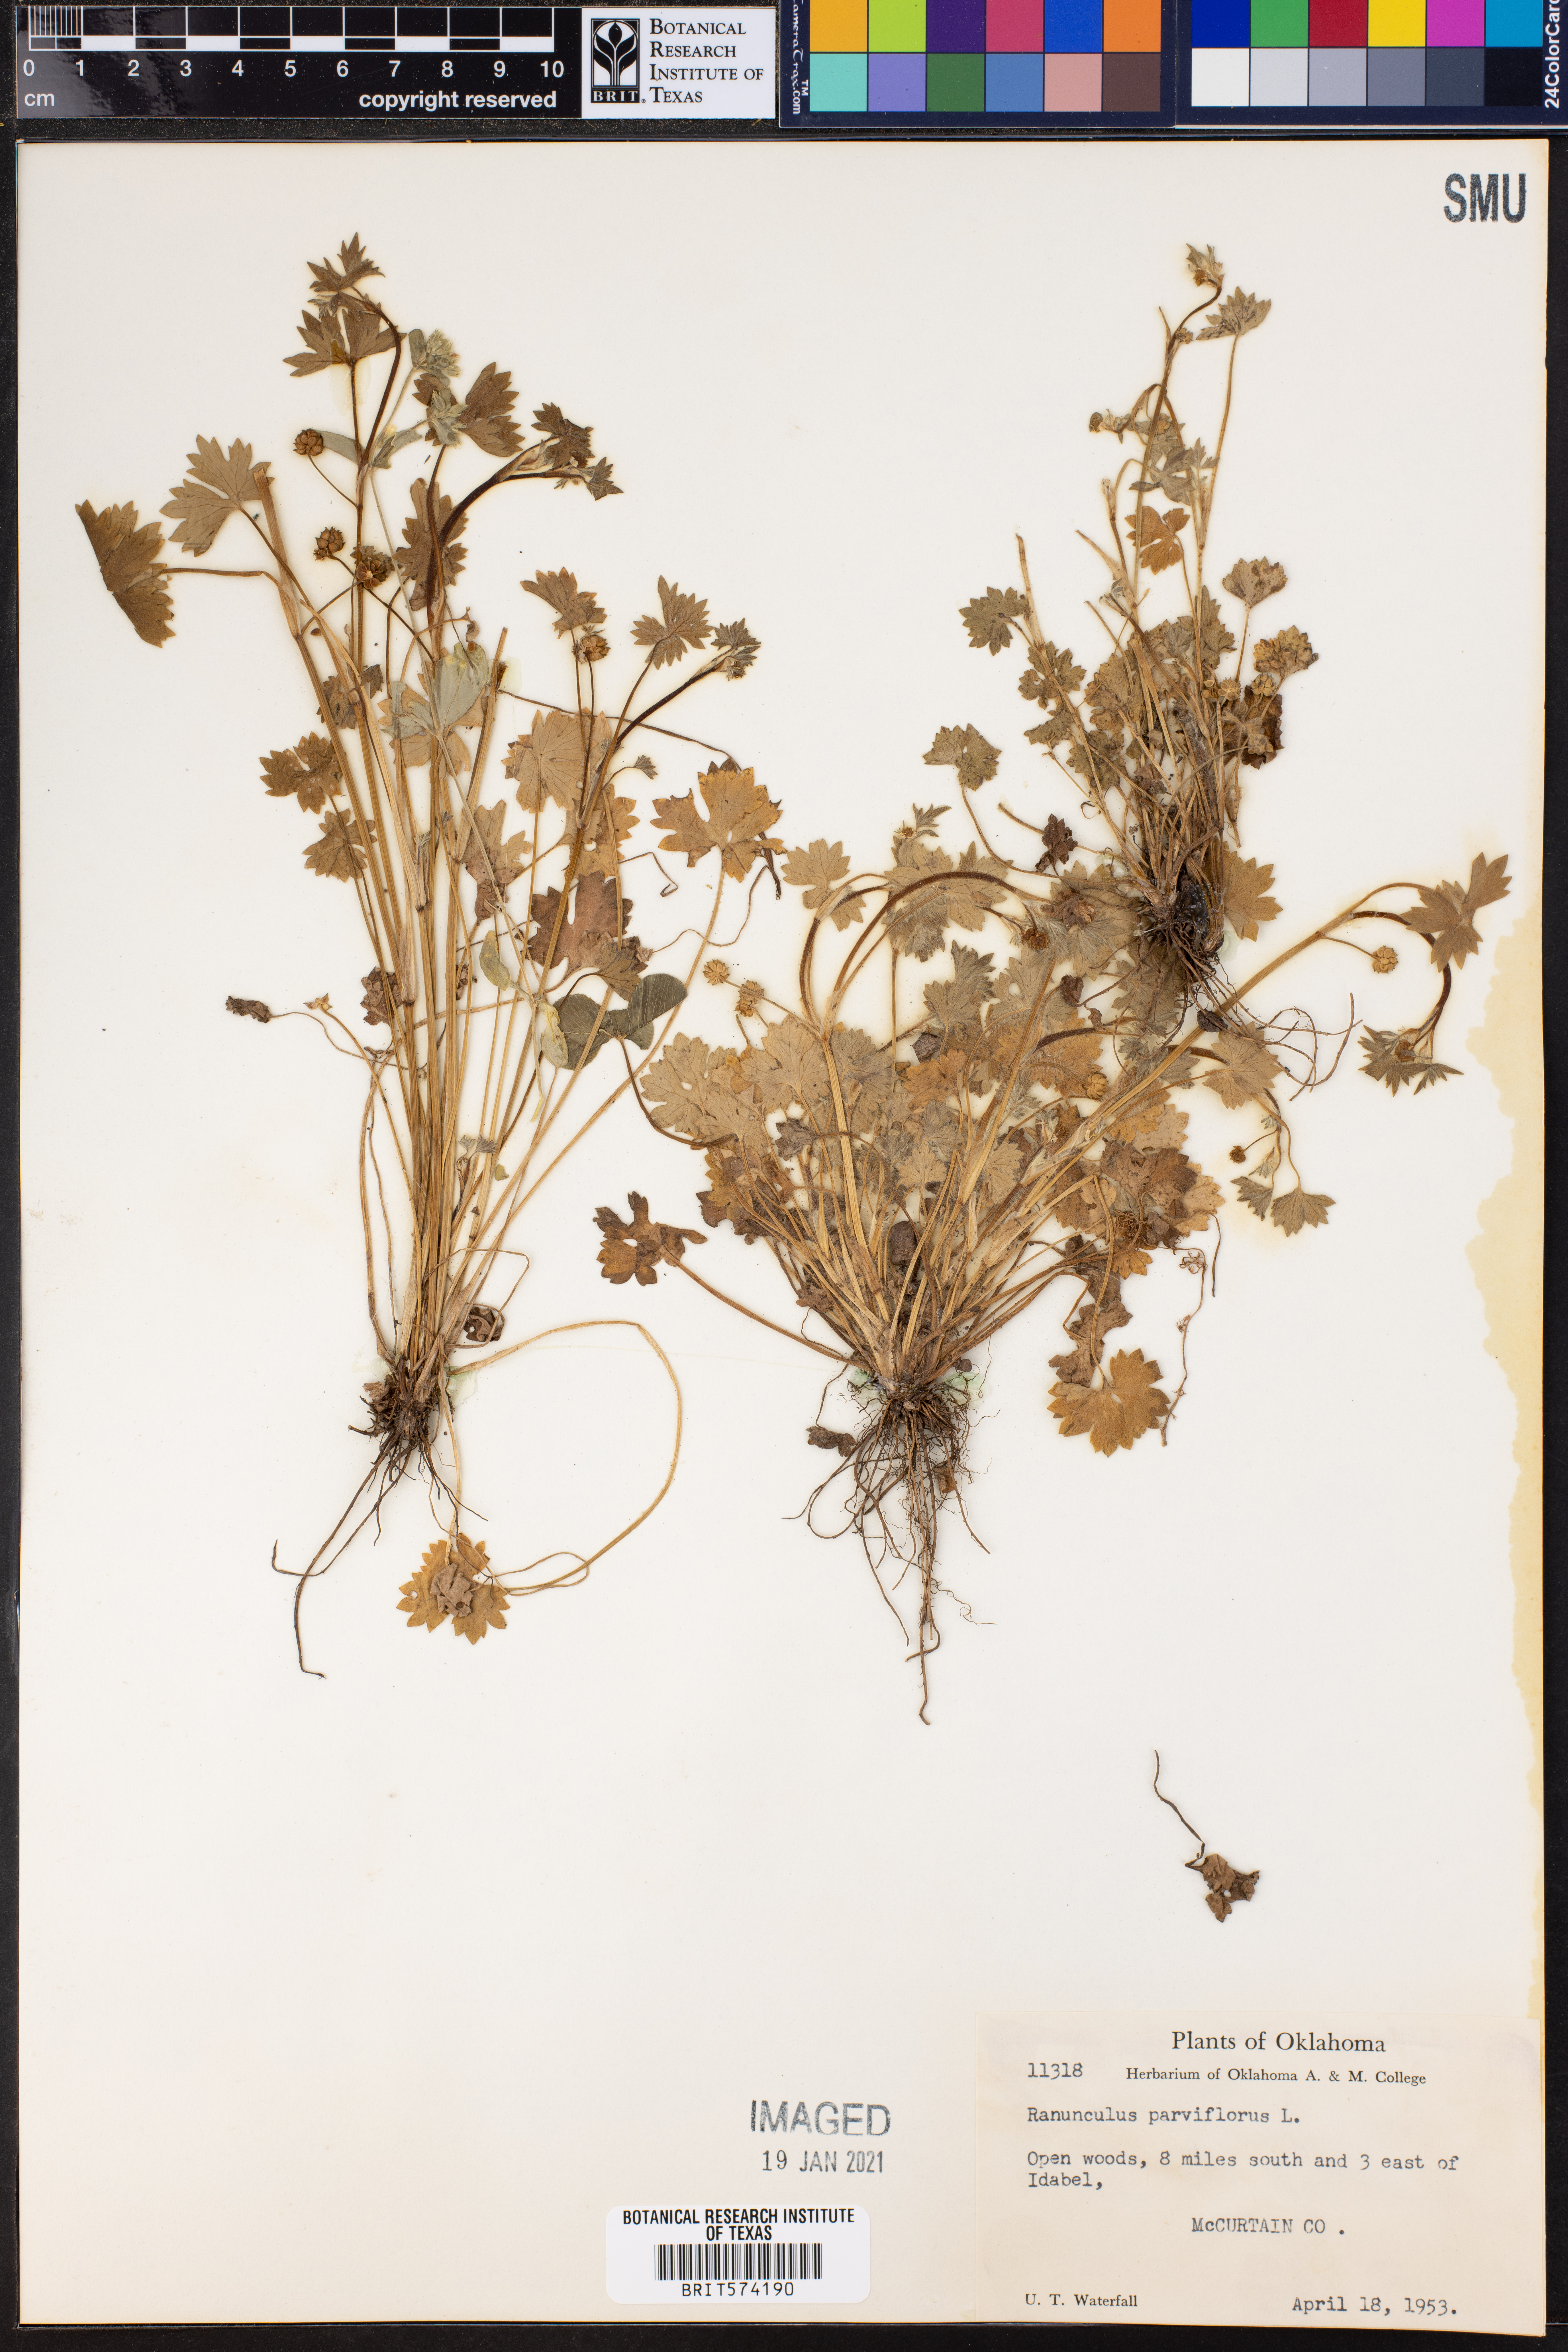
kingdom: Plantae
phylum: Tracheophyta
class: Magnoliopsida
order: Ranunculales
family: Ranunculaceae
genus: Ranunculus
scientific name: Ranunculus parviflorus
